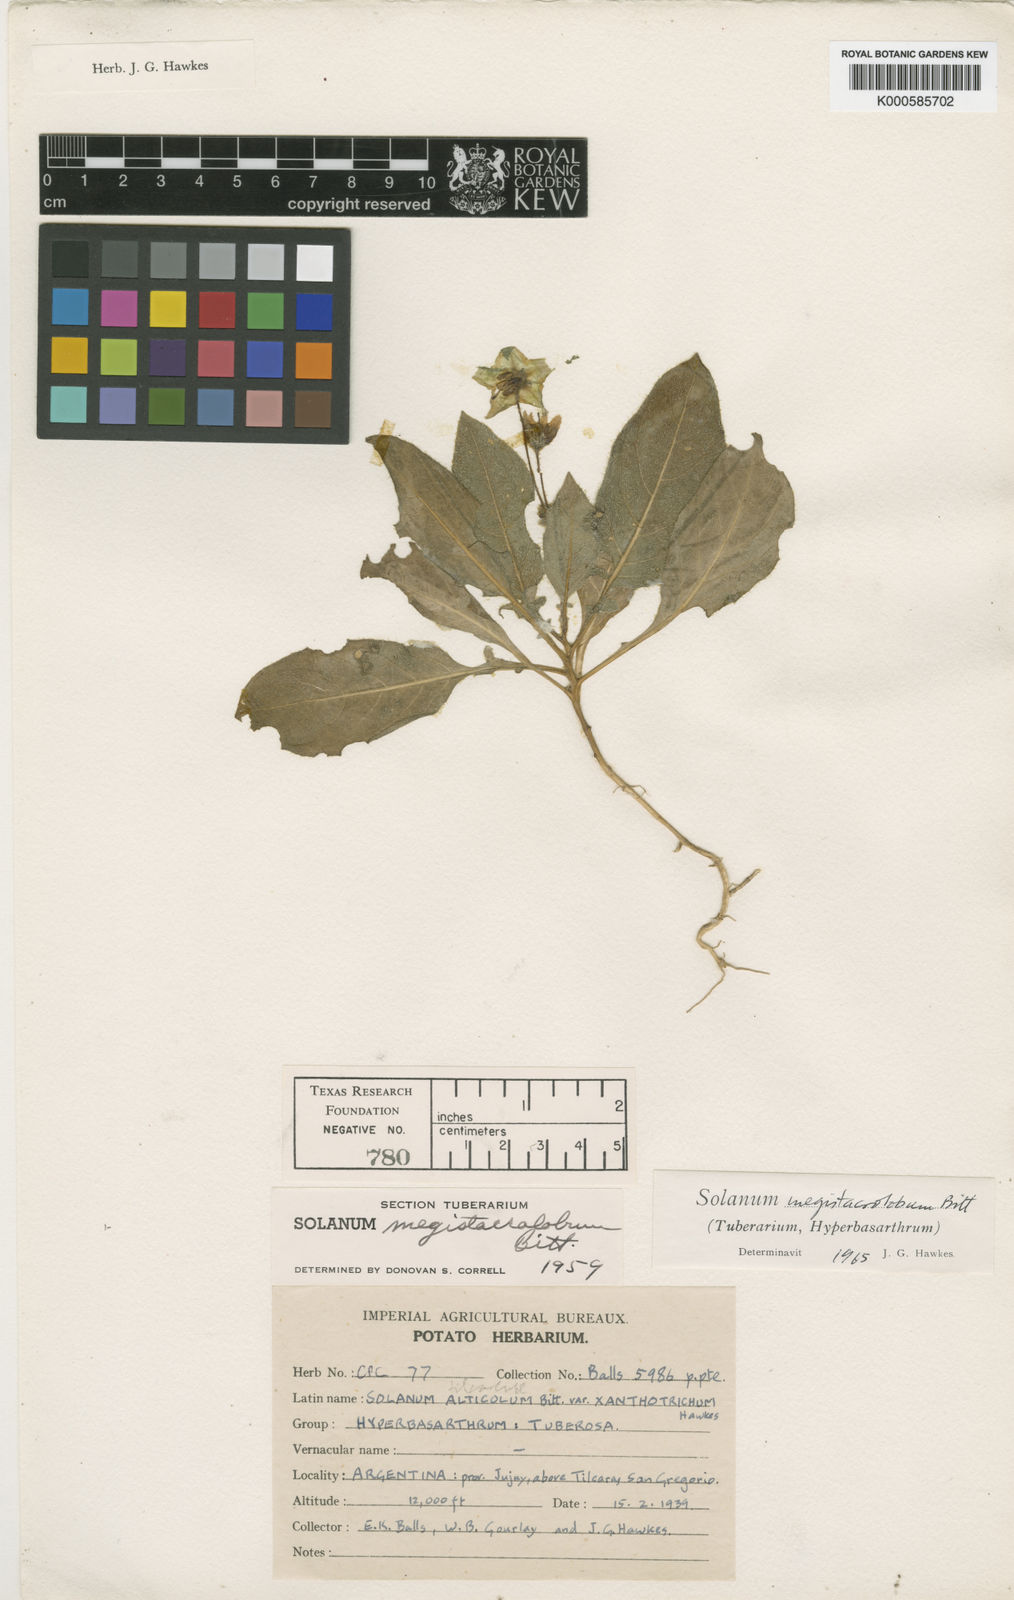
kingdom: Plantae
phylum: Tracheophyta
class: Magnoliopsida
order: Solanales
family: Solanaceae
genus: Solanum
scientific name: Solanum boliviense
